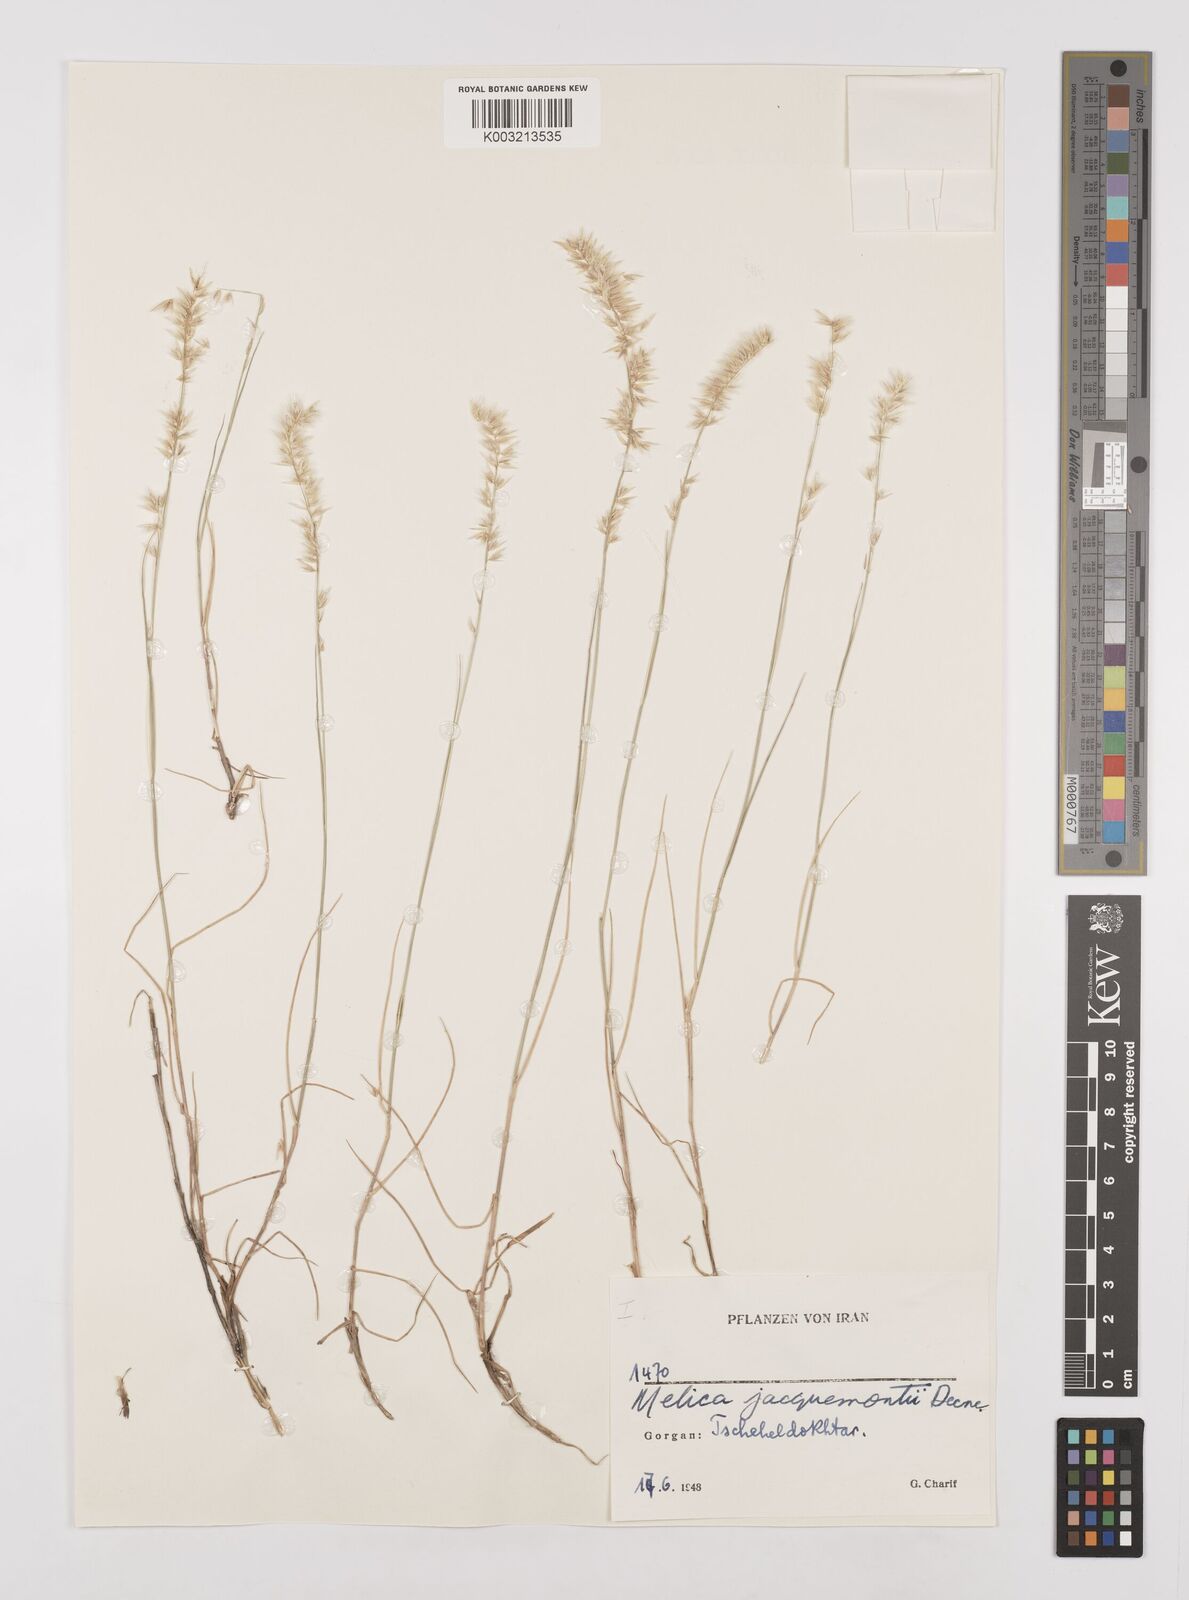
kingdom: Plantae
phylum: Tracheophyta
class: Liliopsida
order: Poales
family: Poaceae
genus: Melica
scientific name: Melica persica
